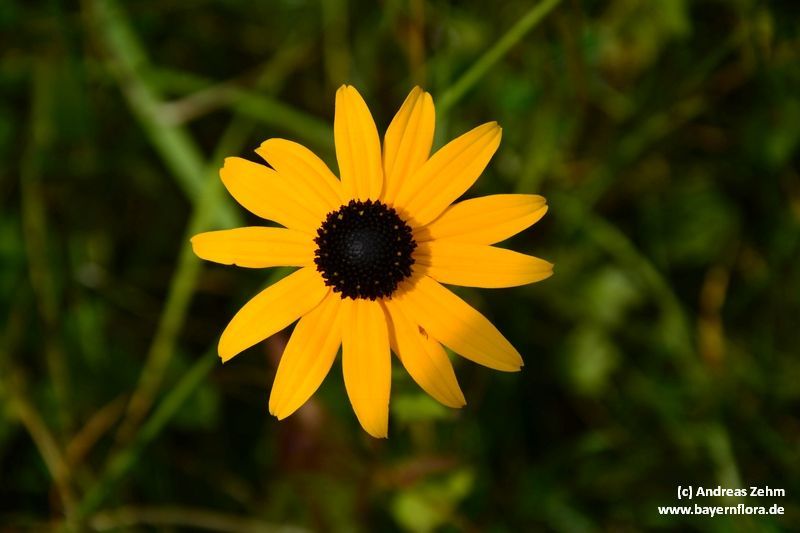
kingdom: Plantae
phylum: Tracheophyta
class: Magnoliopsida
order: Asterales
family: Asteraceae
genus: Rudbeckia
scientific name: Rudbeckia hirta
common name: Black-eyed-susan
